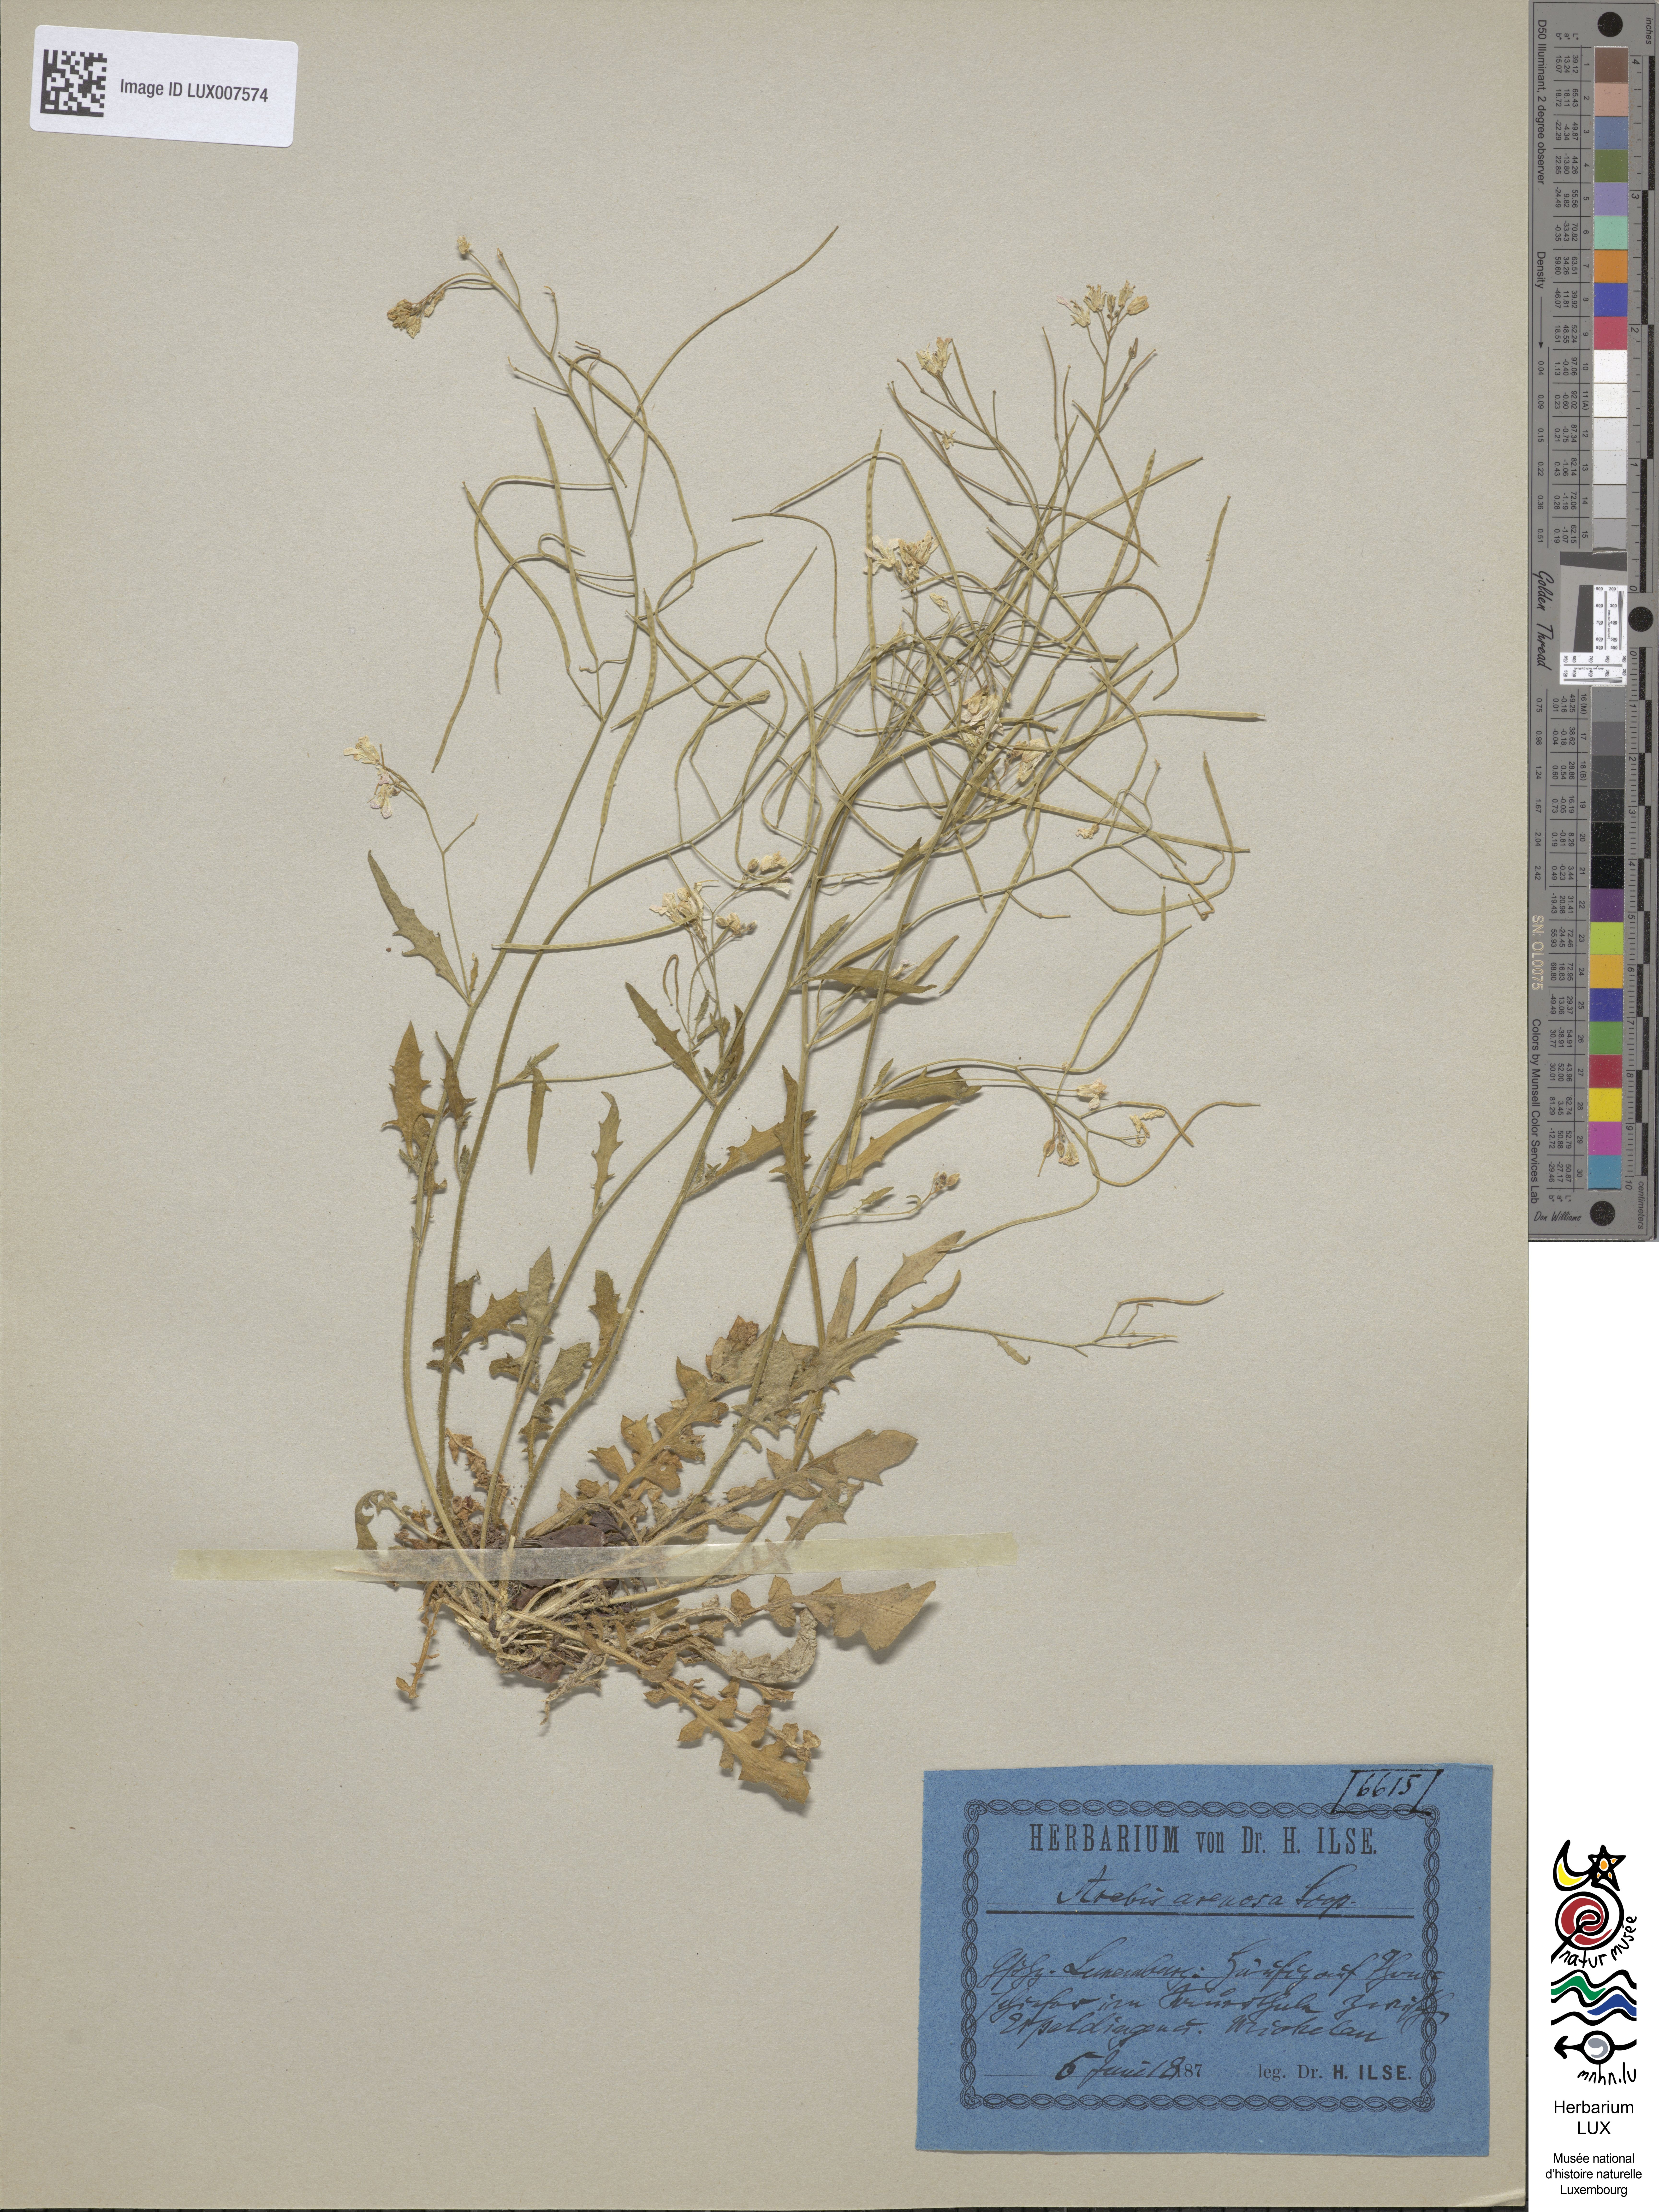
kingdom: Plantae
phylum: Tracheophyta
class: Magnoliopsida
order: Brassicales
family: Brassicaceae
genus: Arabidopsis
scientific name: Arabidopsis arenosa
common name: Sand rock-cress
